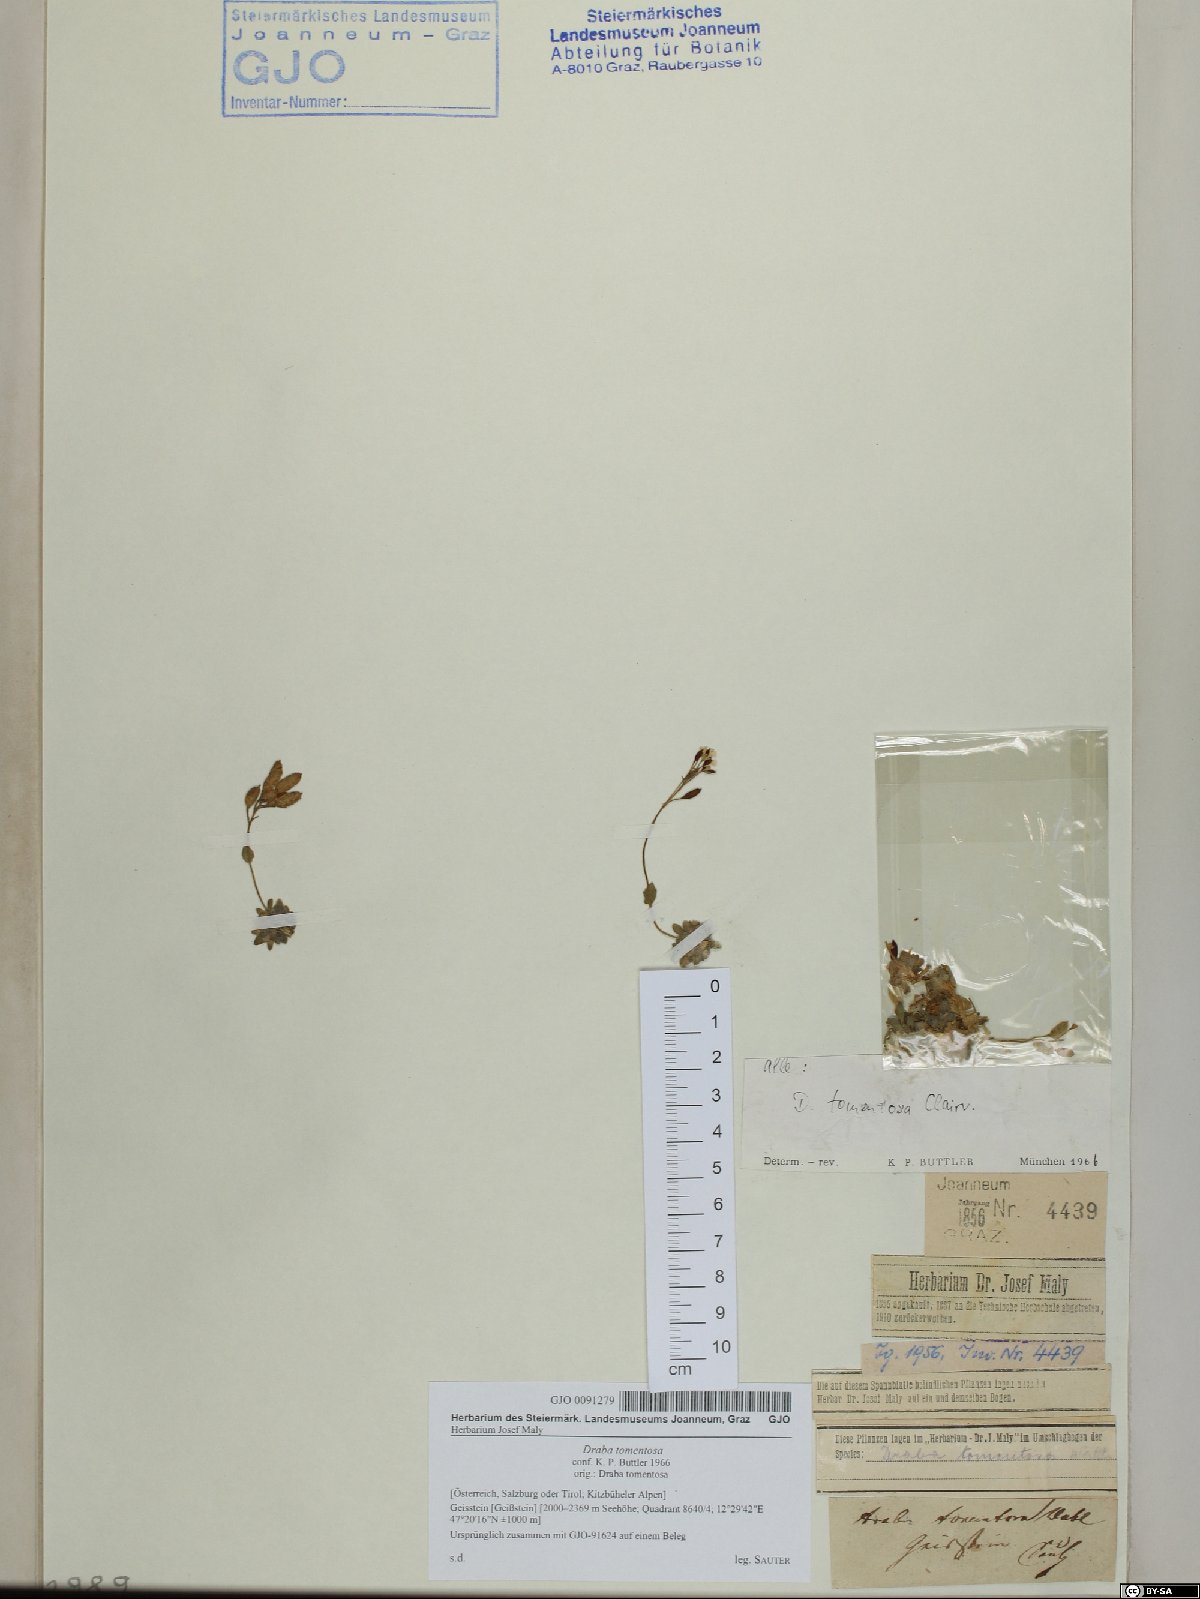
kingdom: Plantae
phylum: Tracheophyta
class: Magnoliopsida
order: Brassicales
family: Brassicaceae
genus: Draba
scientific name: Draba tomentosa
